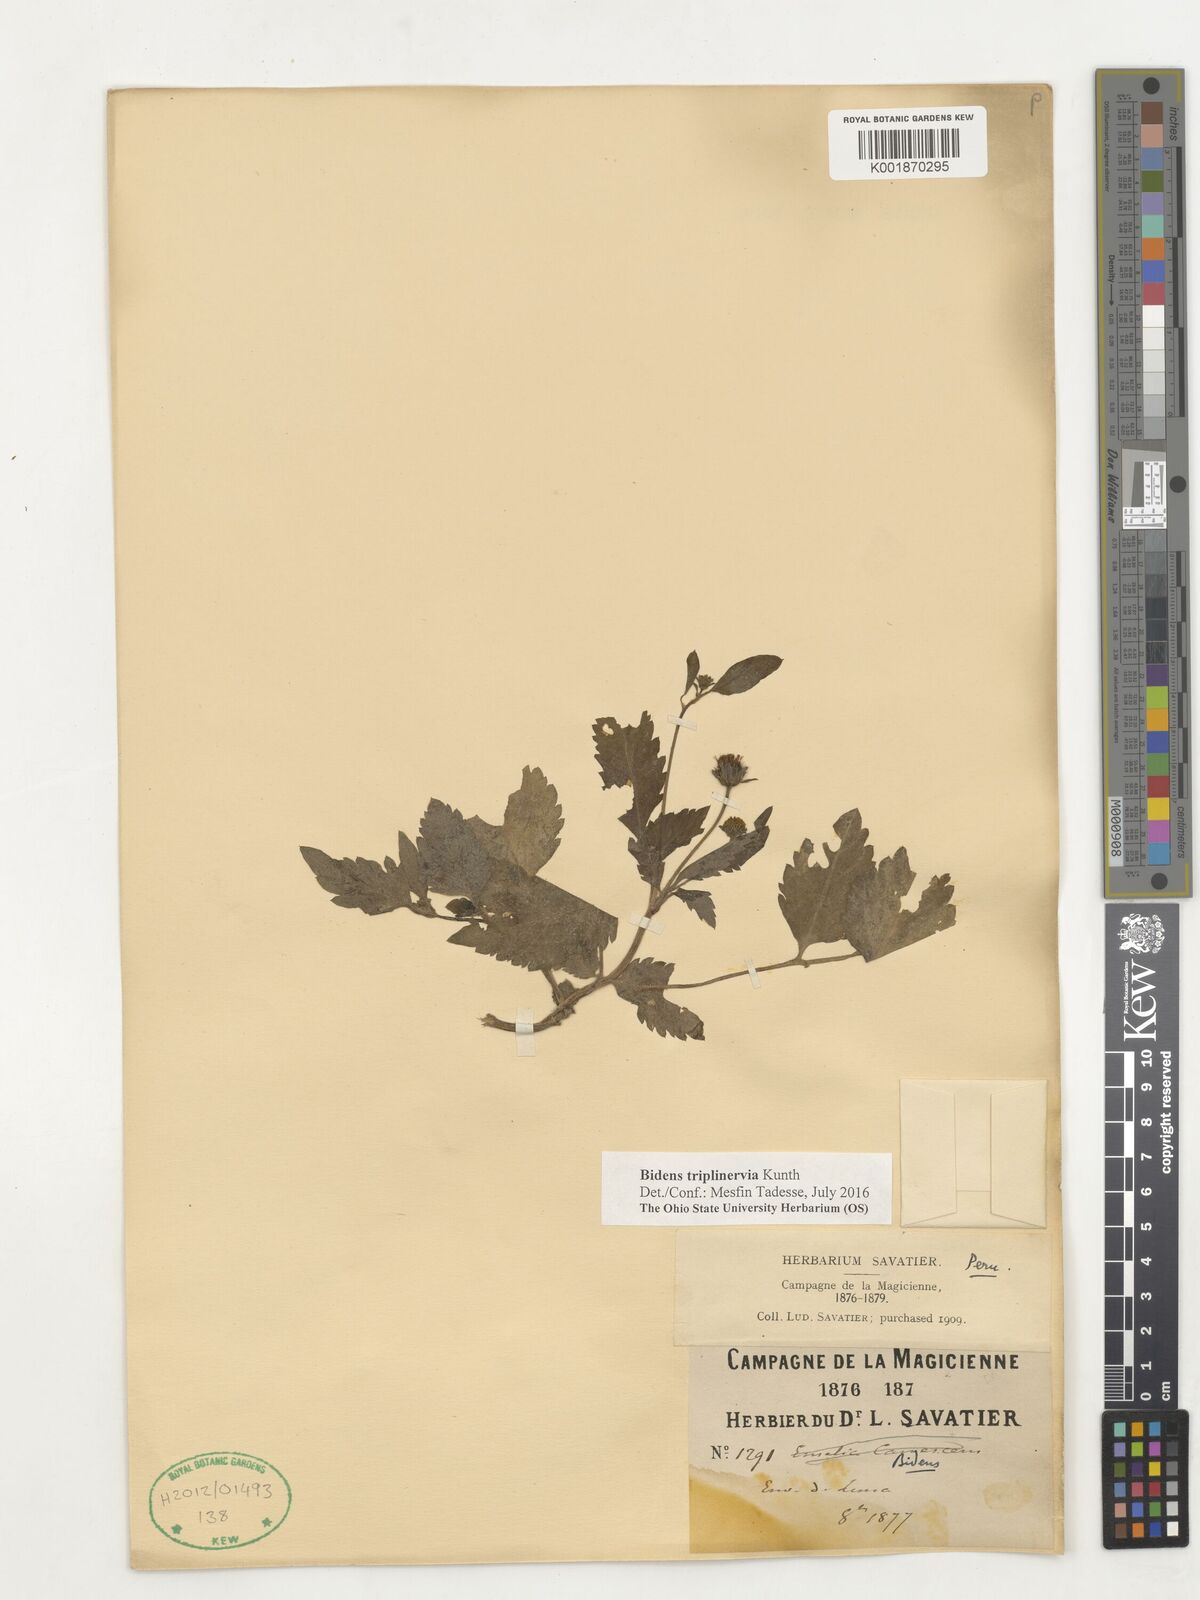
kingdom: Plantae
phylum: Tracheophyta
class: Magnoliopsida
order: Asterales
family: Asteraceae
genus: Bidens
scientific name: Bidens triplinervia
